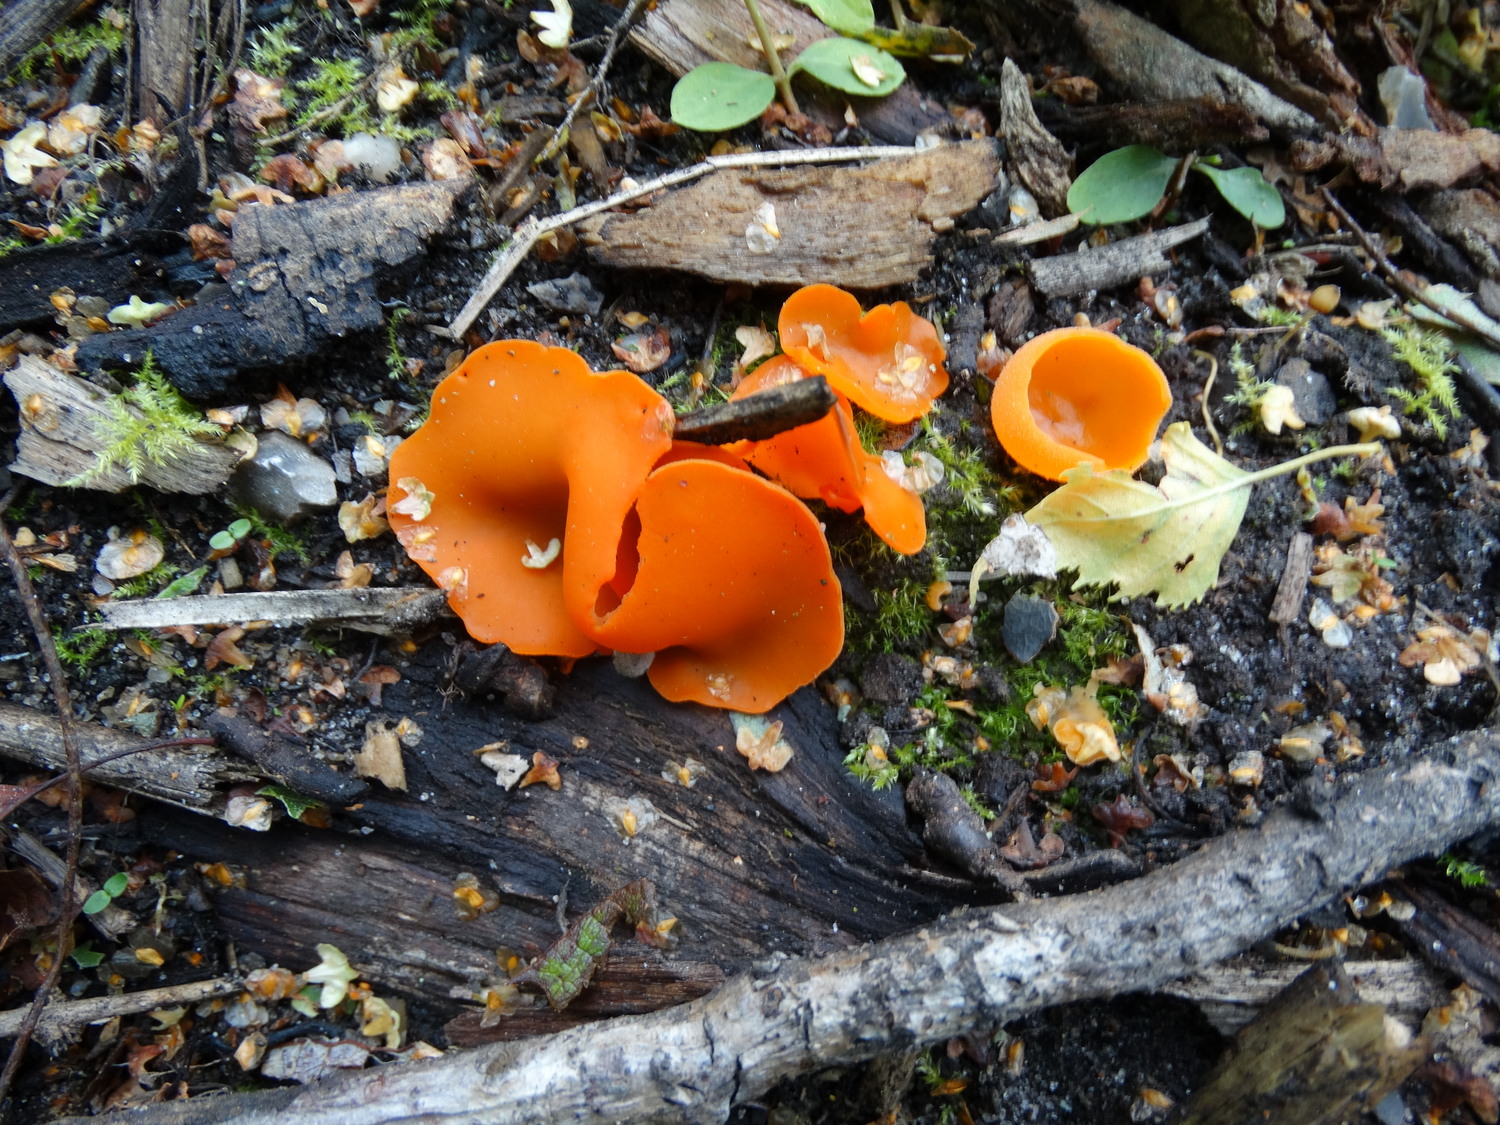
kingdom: Fungi
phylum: Ascomycota
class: Pezizomycetes
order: Pezizales
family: Pyronemataceae
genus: Aleuria
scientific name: Aleuria aurantia
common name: almindelig orangebæger
